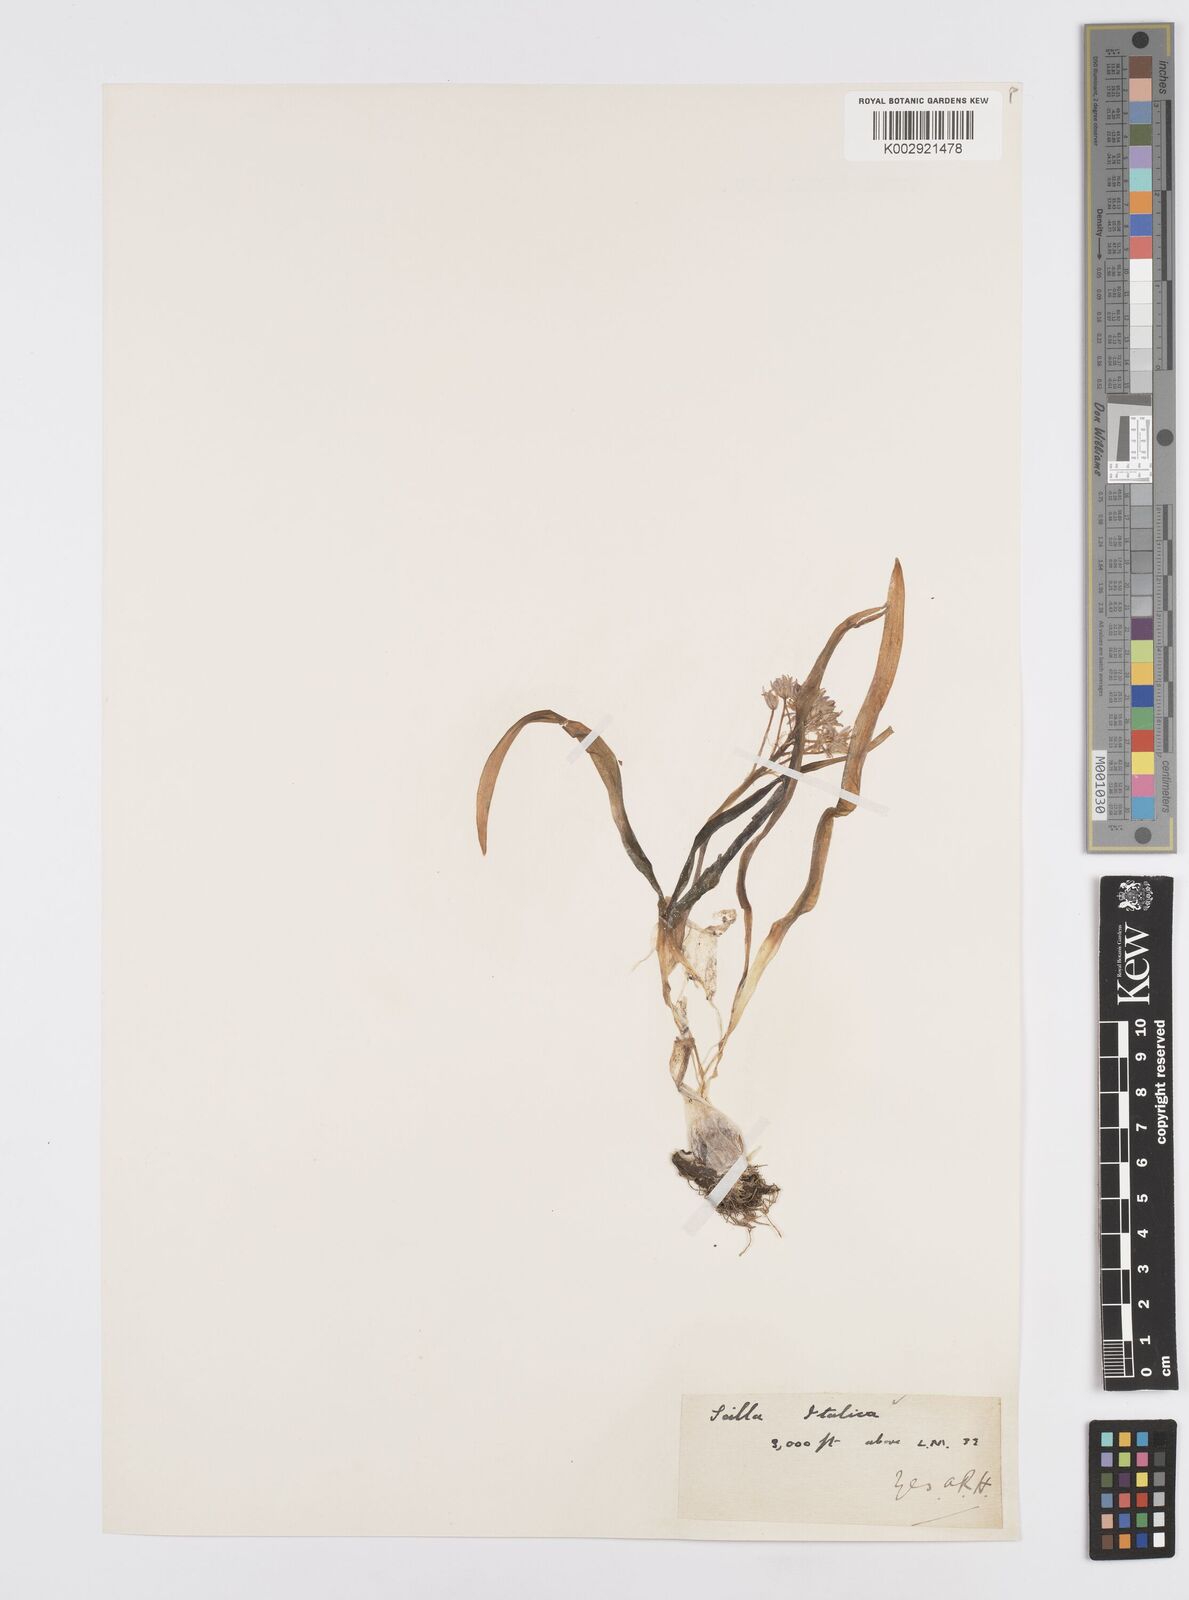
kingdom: Plantae
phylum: Tracheophyta
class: Liliopsida
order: Asparagales
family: Asparagaceae
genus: Hyacinthoides
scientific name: Hyacinthoides italica
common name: Italian bluebell
